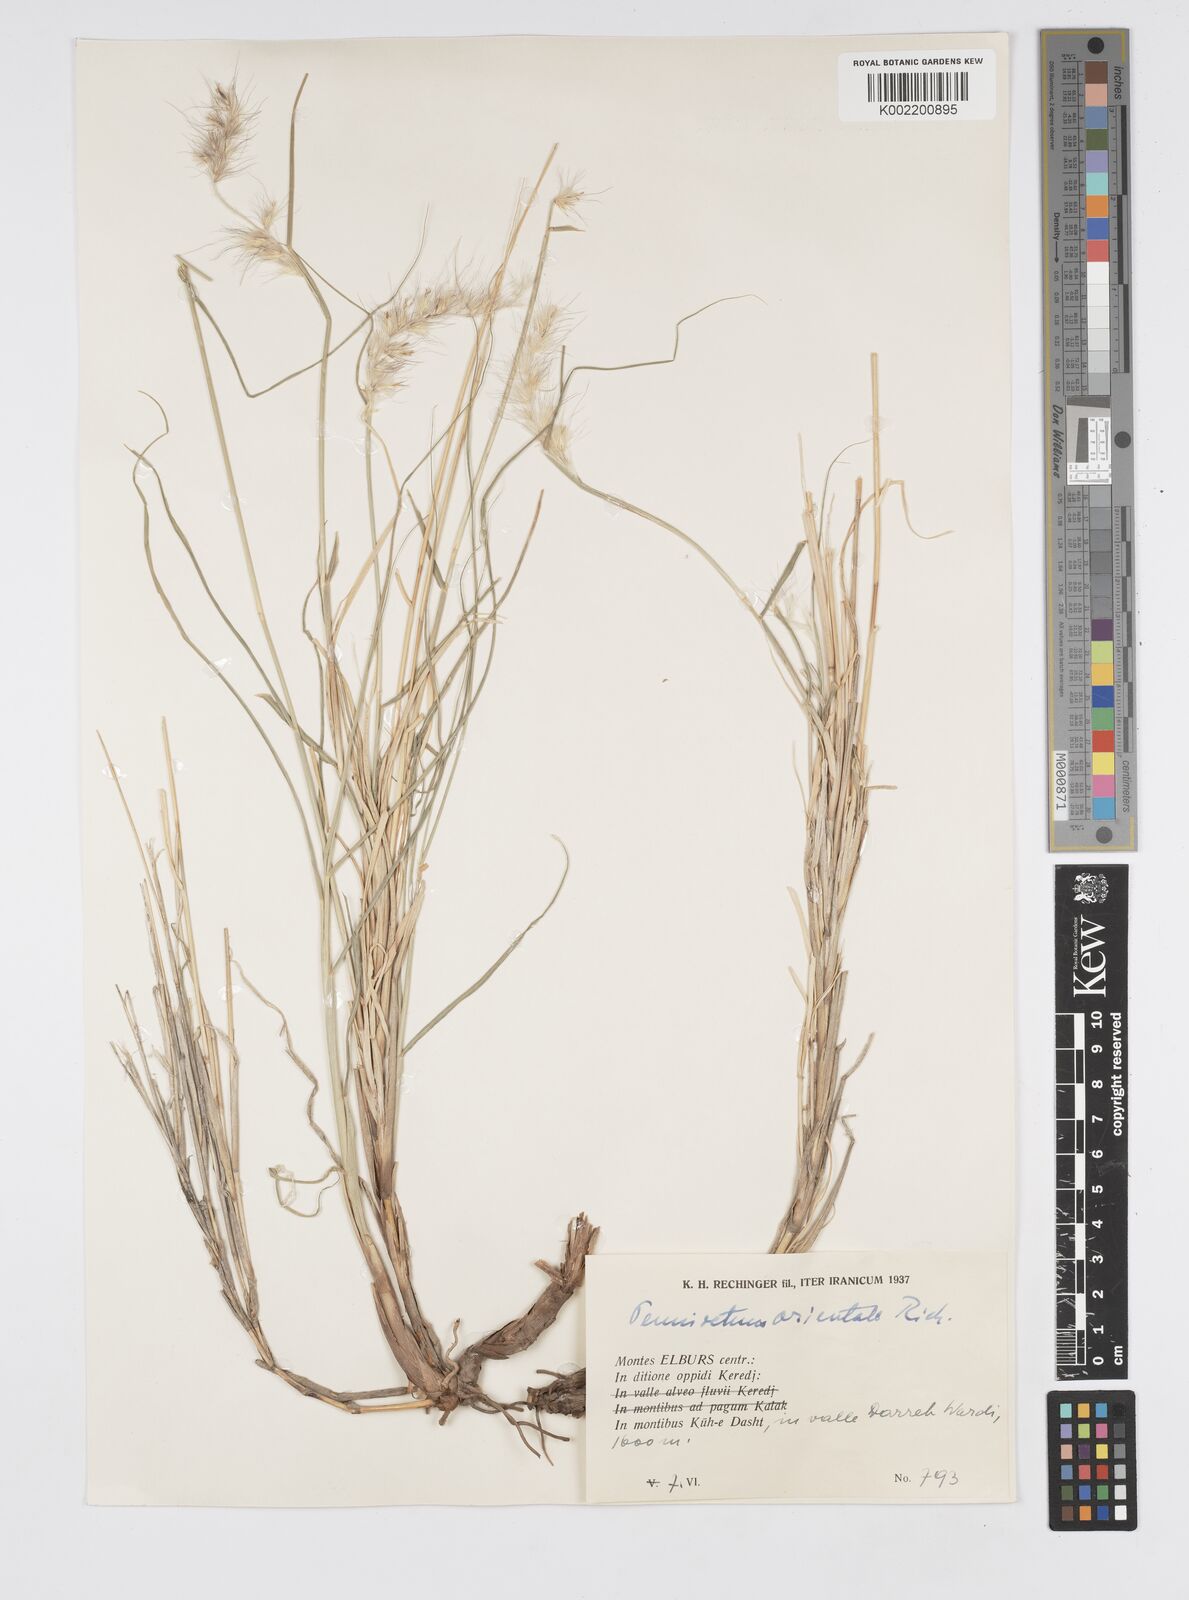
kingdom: Plantae
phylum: Tracheophyta
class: Liliopsida
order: Poales
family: Poaceae
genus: Cenchrus
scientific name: Cenchrus orientalis
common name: Oriental fountain grass
